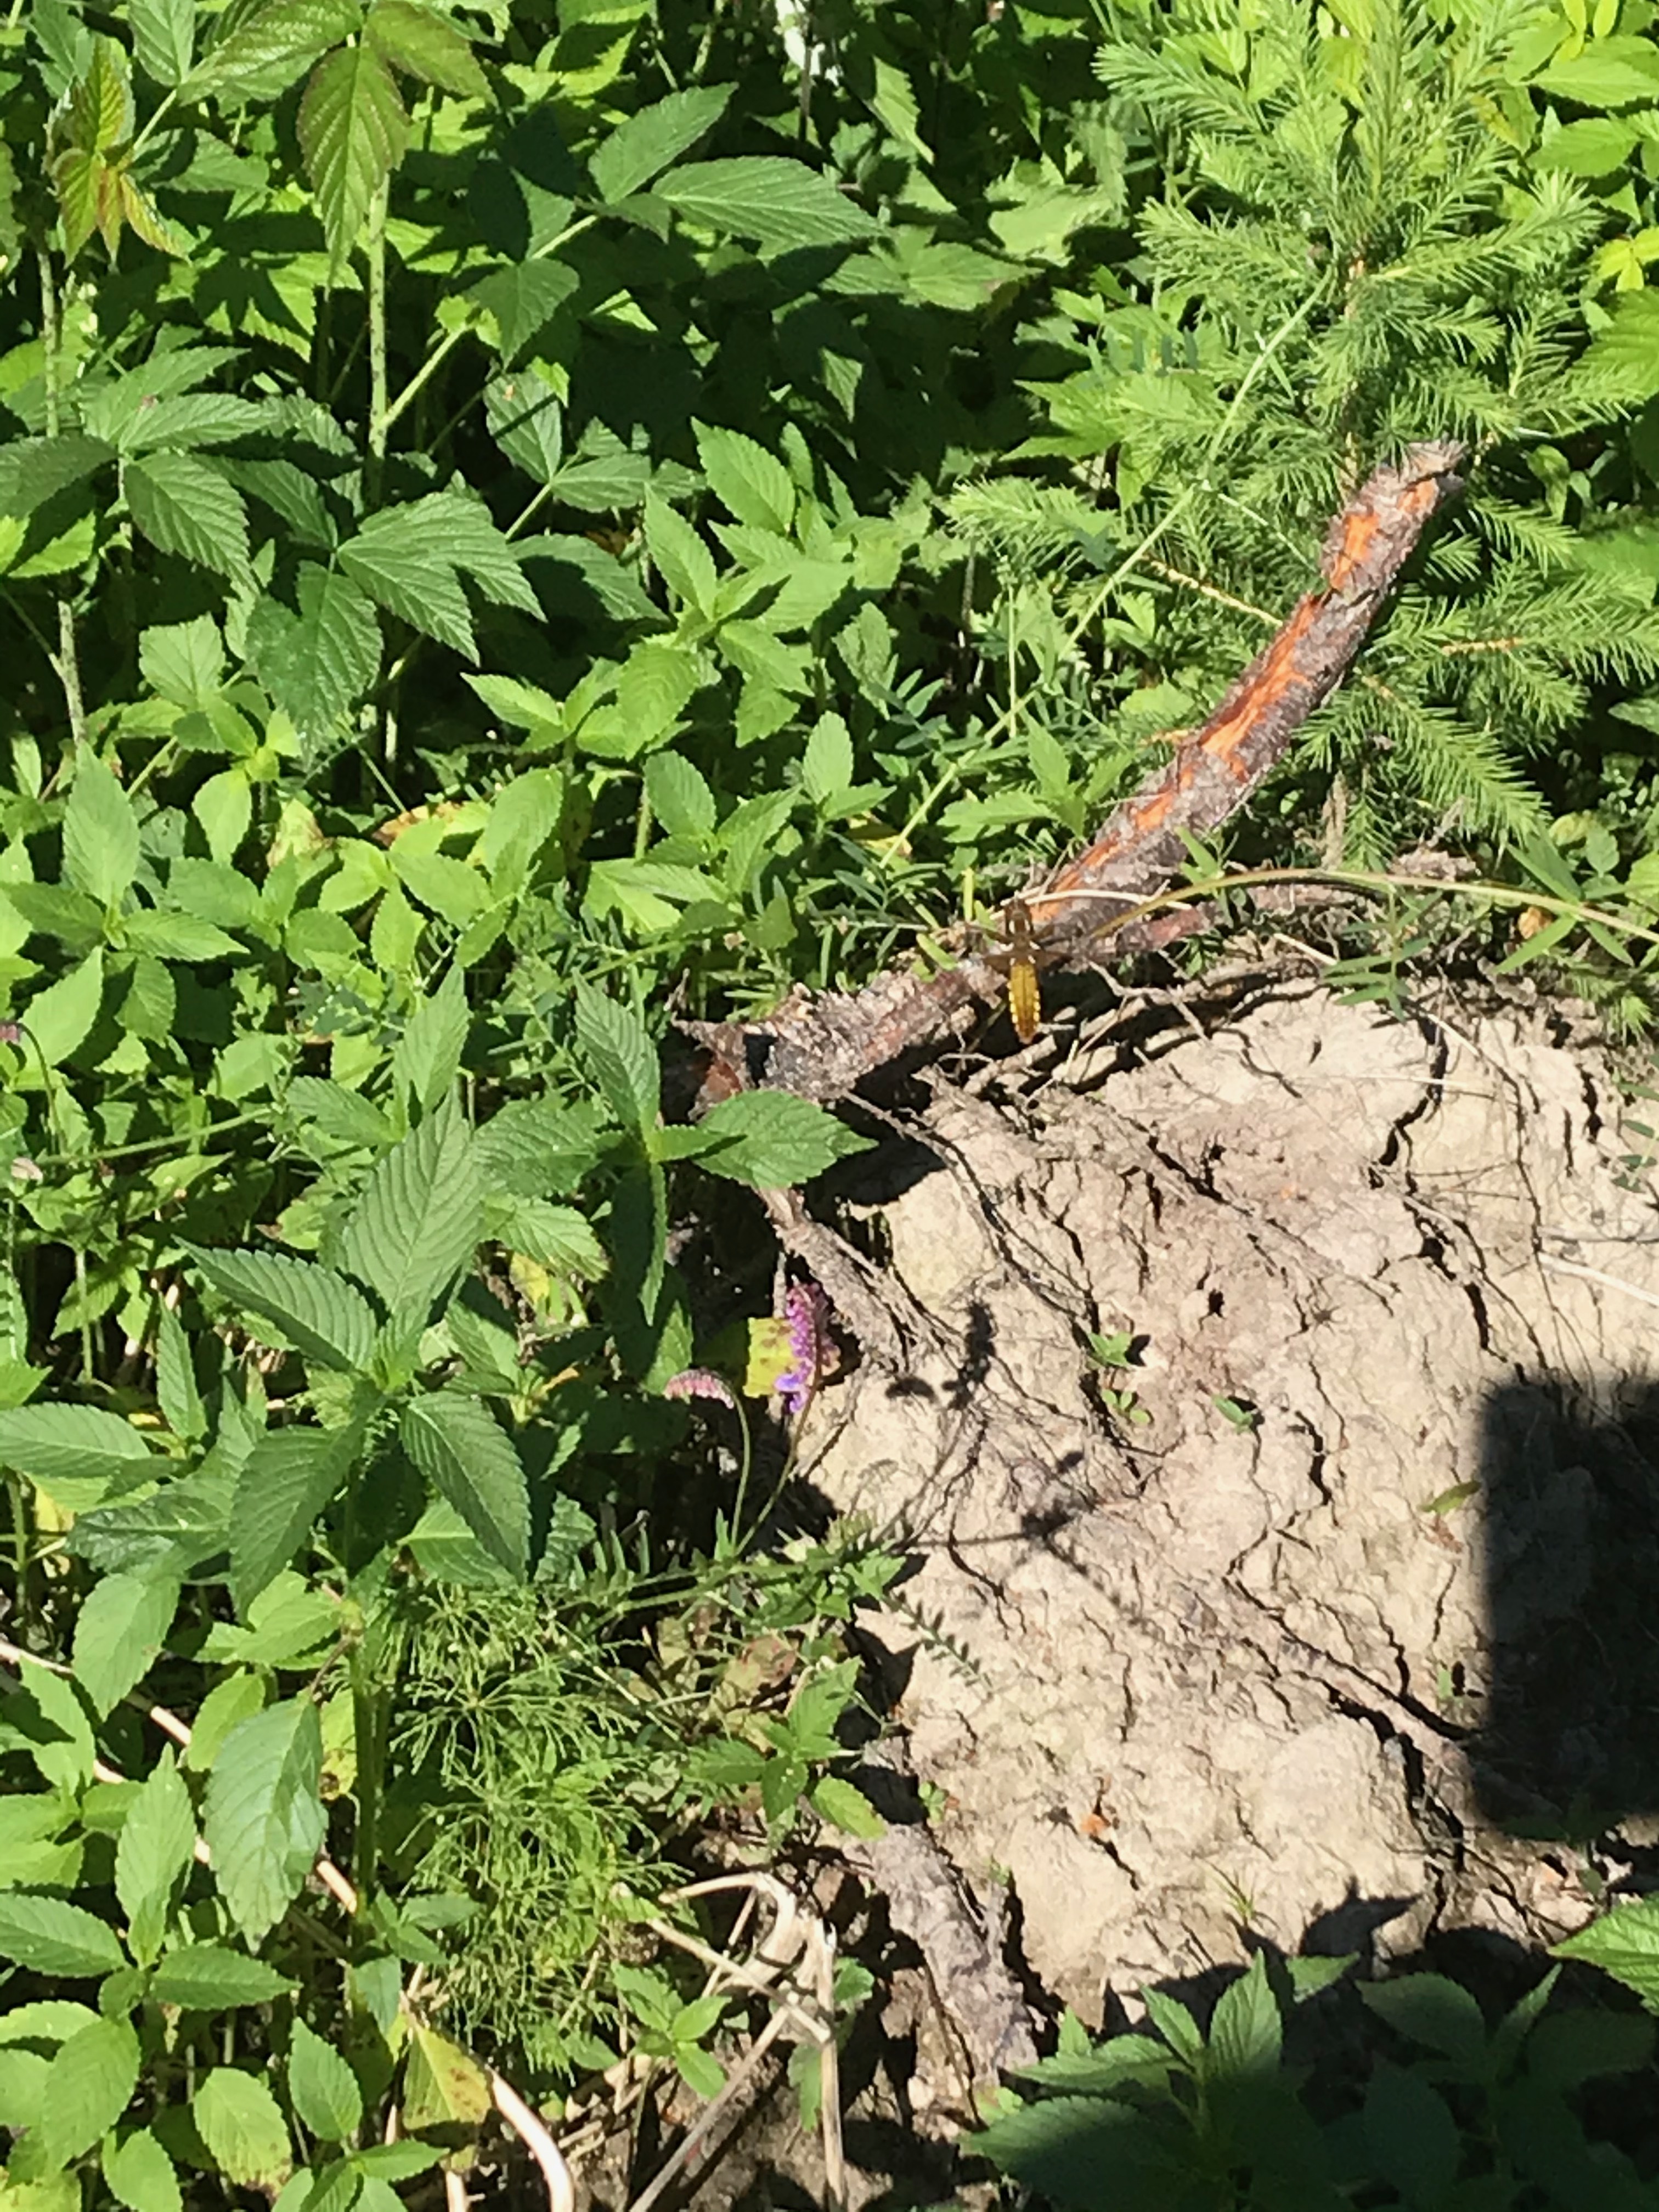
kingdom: Animalia
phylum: Arthropoda
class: Insecta
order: Odonata
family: Libellulidae
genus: Libellula
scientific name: Libellula depressa
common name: Broad-bodied chaser
